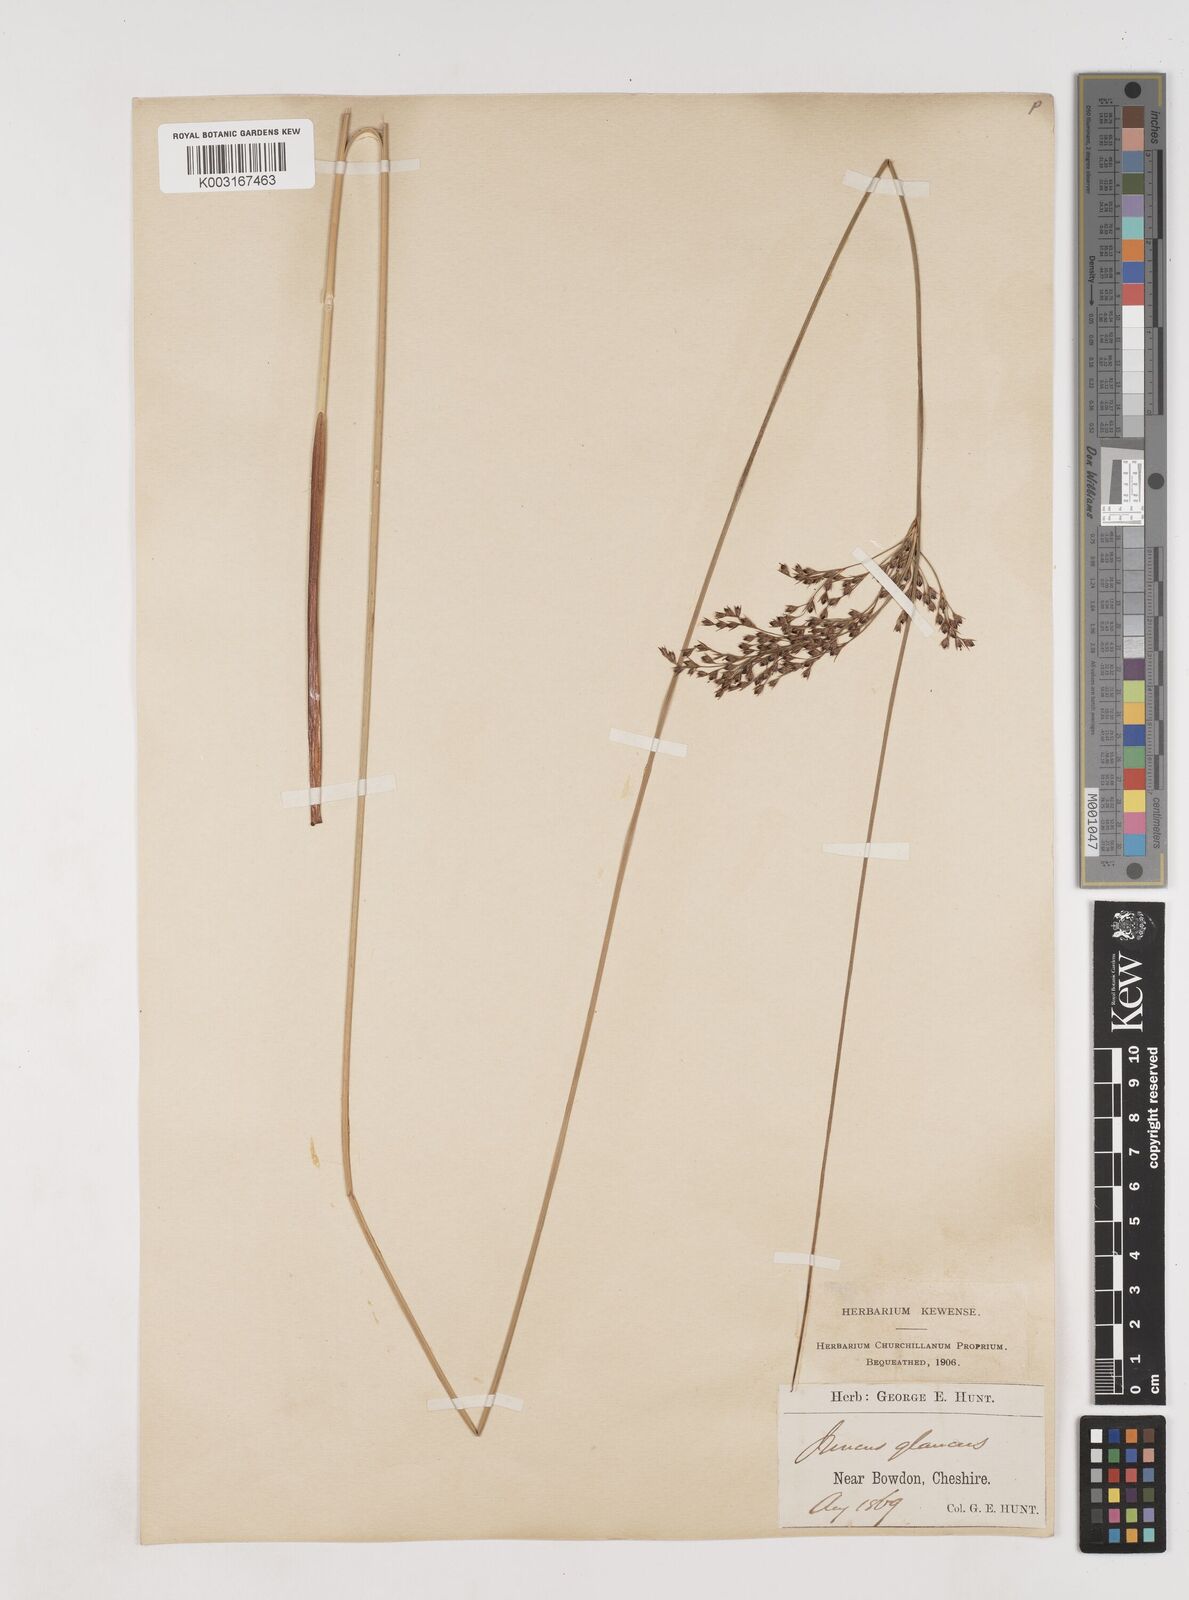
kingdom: Plantae
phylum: Tracheophyta
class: Liliopsida
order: Poales
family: Juncaceae
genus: Juncus
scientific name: Juncus inflexus
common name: Hard rush
